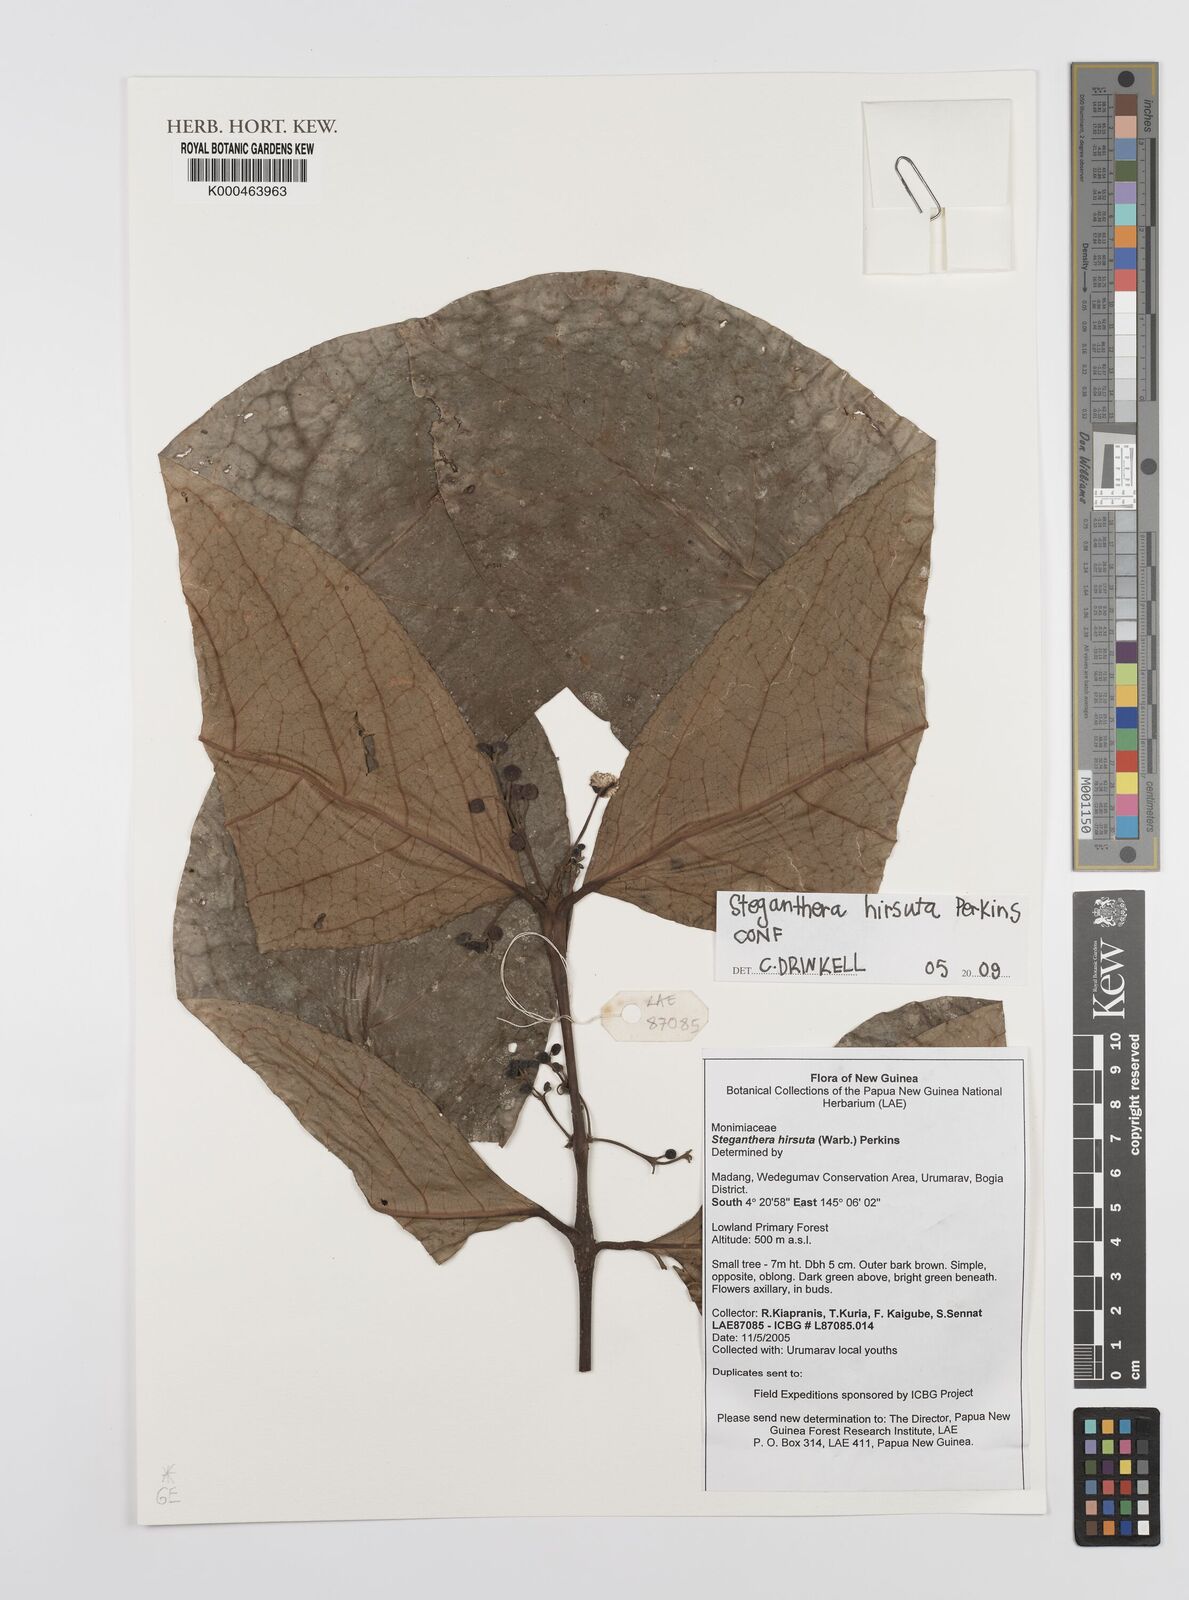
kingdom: Plantae
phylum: Tracheophyta
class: Magnoliopsida
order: Laurales
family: Monimiaceae
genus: Steganthera
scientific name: Steganthera hirsuta
